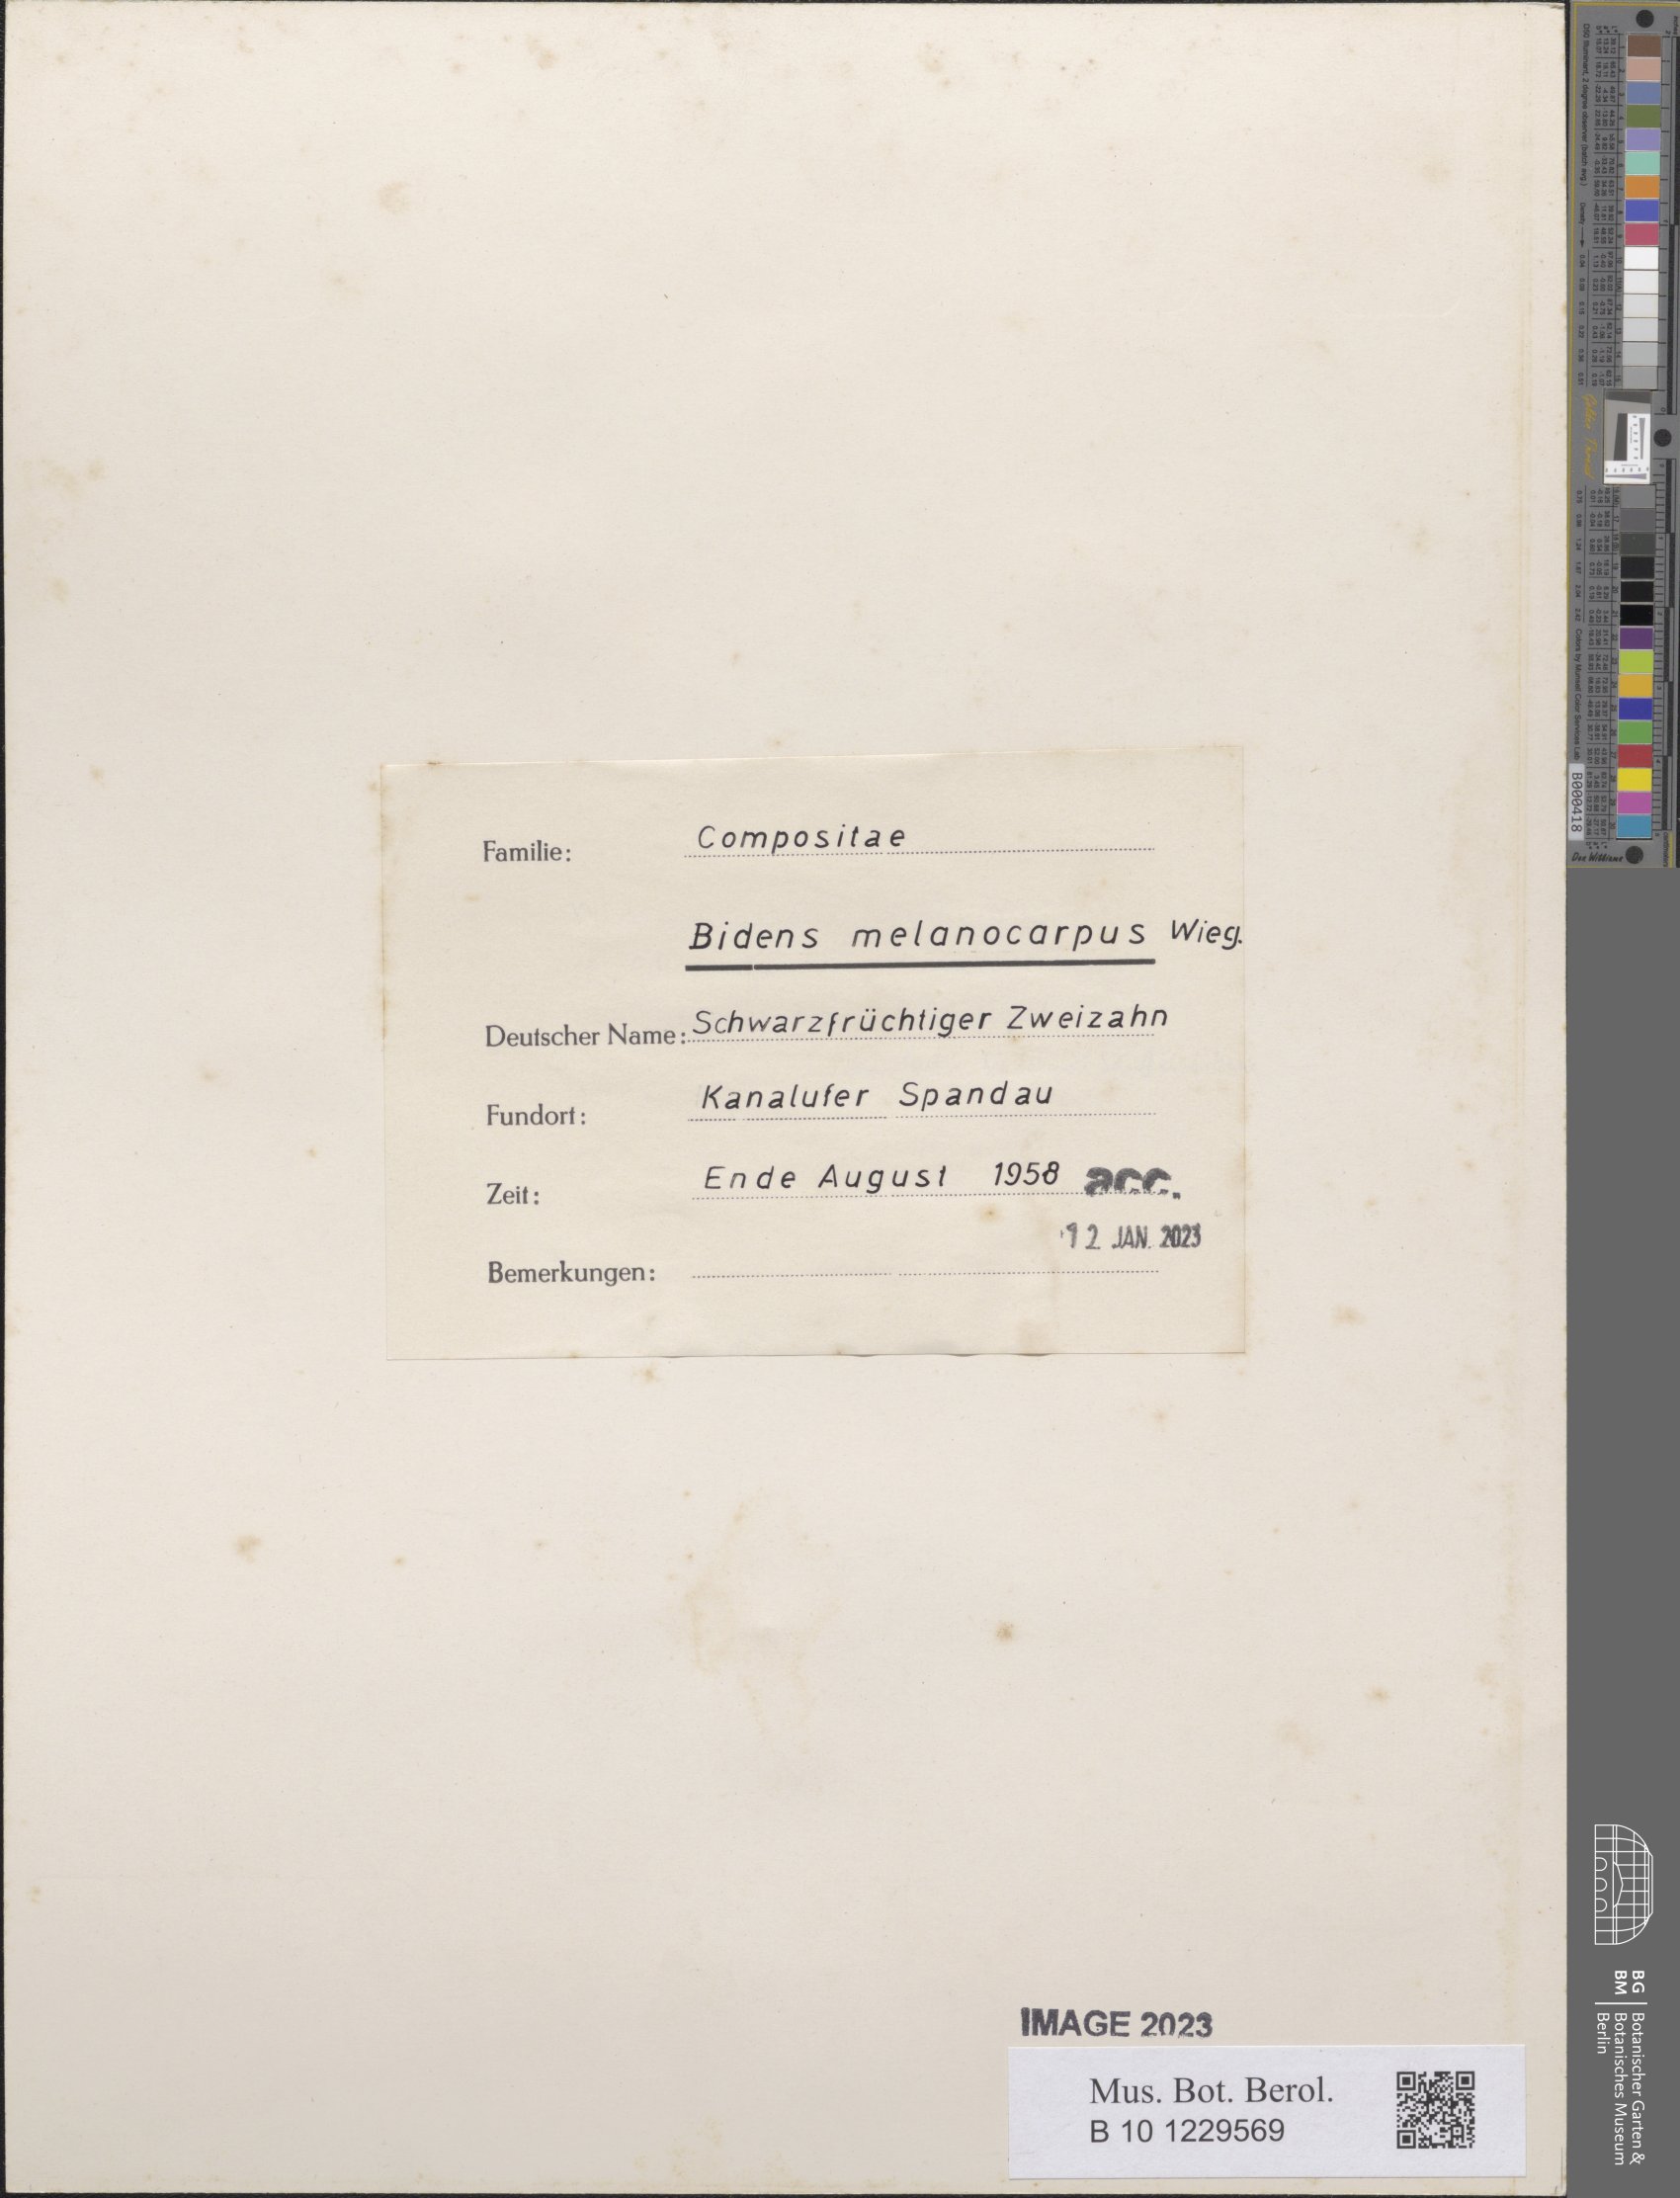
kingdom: Plantae
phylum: Tracheophyta
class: Magnoliopsida
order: Asterales
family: Asteraceae
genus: Bidens
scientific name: Bidens frondosa
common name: Beggarticks
